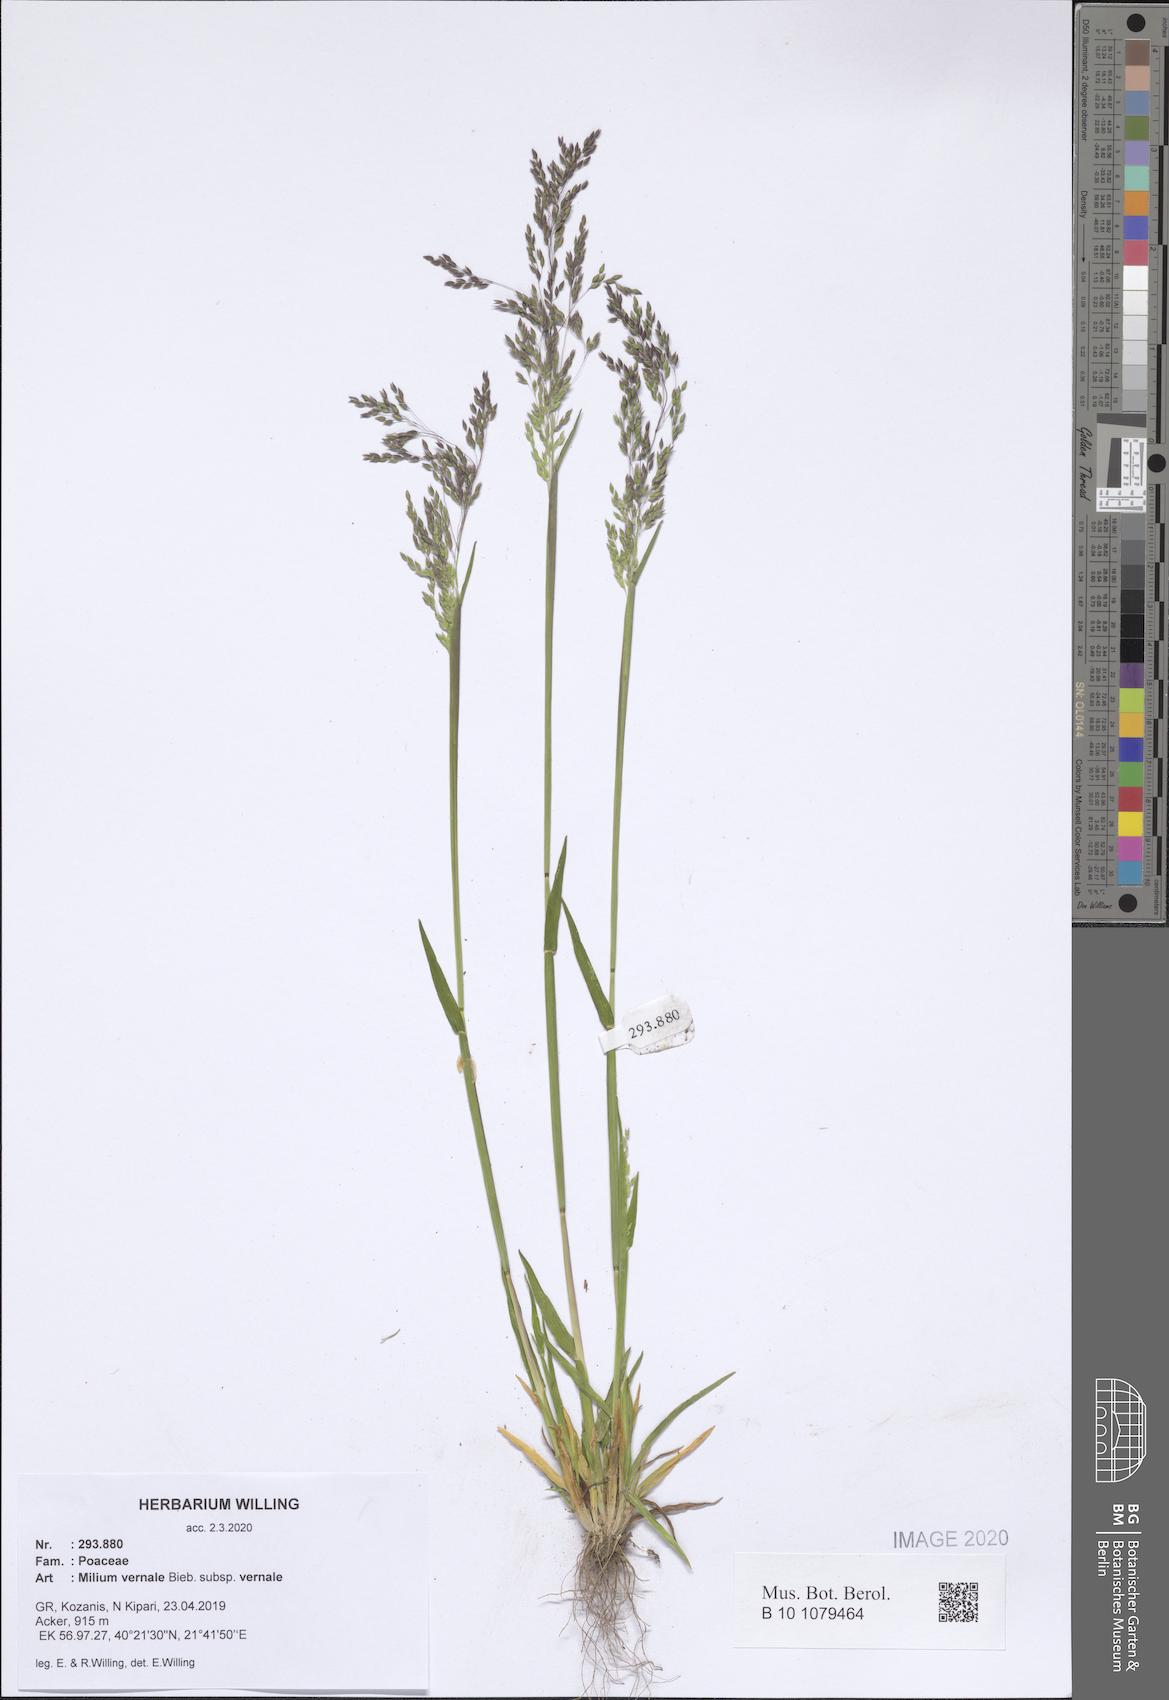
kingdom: Plantae
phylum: Tracheophyta
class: Liliopsida
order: Poales
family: Poaceae
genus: Milium
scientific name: Milium vernale
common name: Early millet
